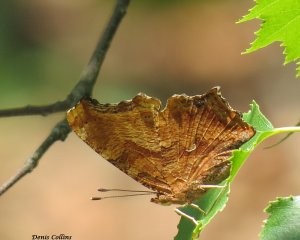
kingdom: Animalia
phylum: Arthropoda
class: Insecta
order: Lepidoptera
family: Nymphalidae
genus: Polygonia
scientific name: Polygonia comma
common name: Eastern Comma
